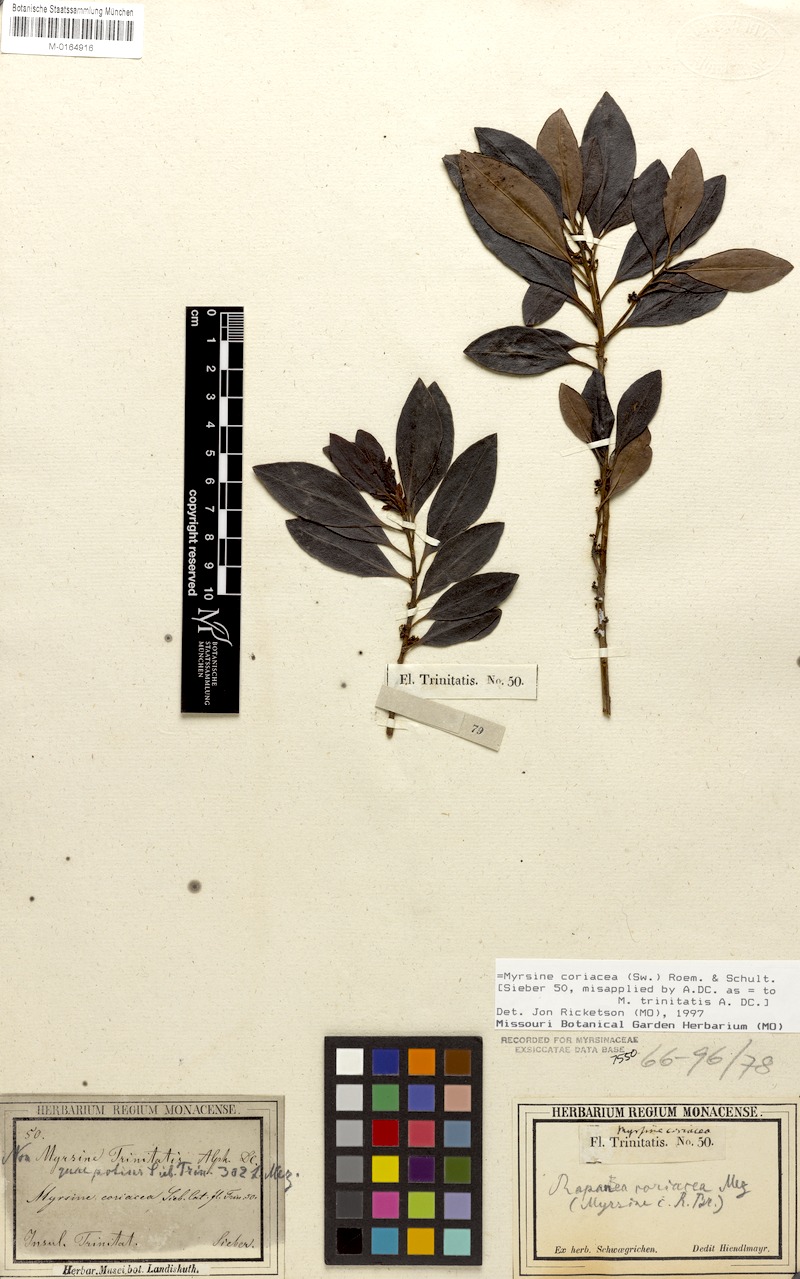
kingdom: Plantae
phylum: Tracheophyta
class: Magnoliopsida
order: Ericales
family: Primulaceae
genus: Myrsine
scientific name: Myrsine coriacea
